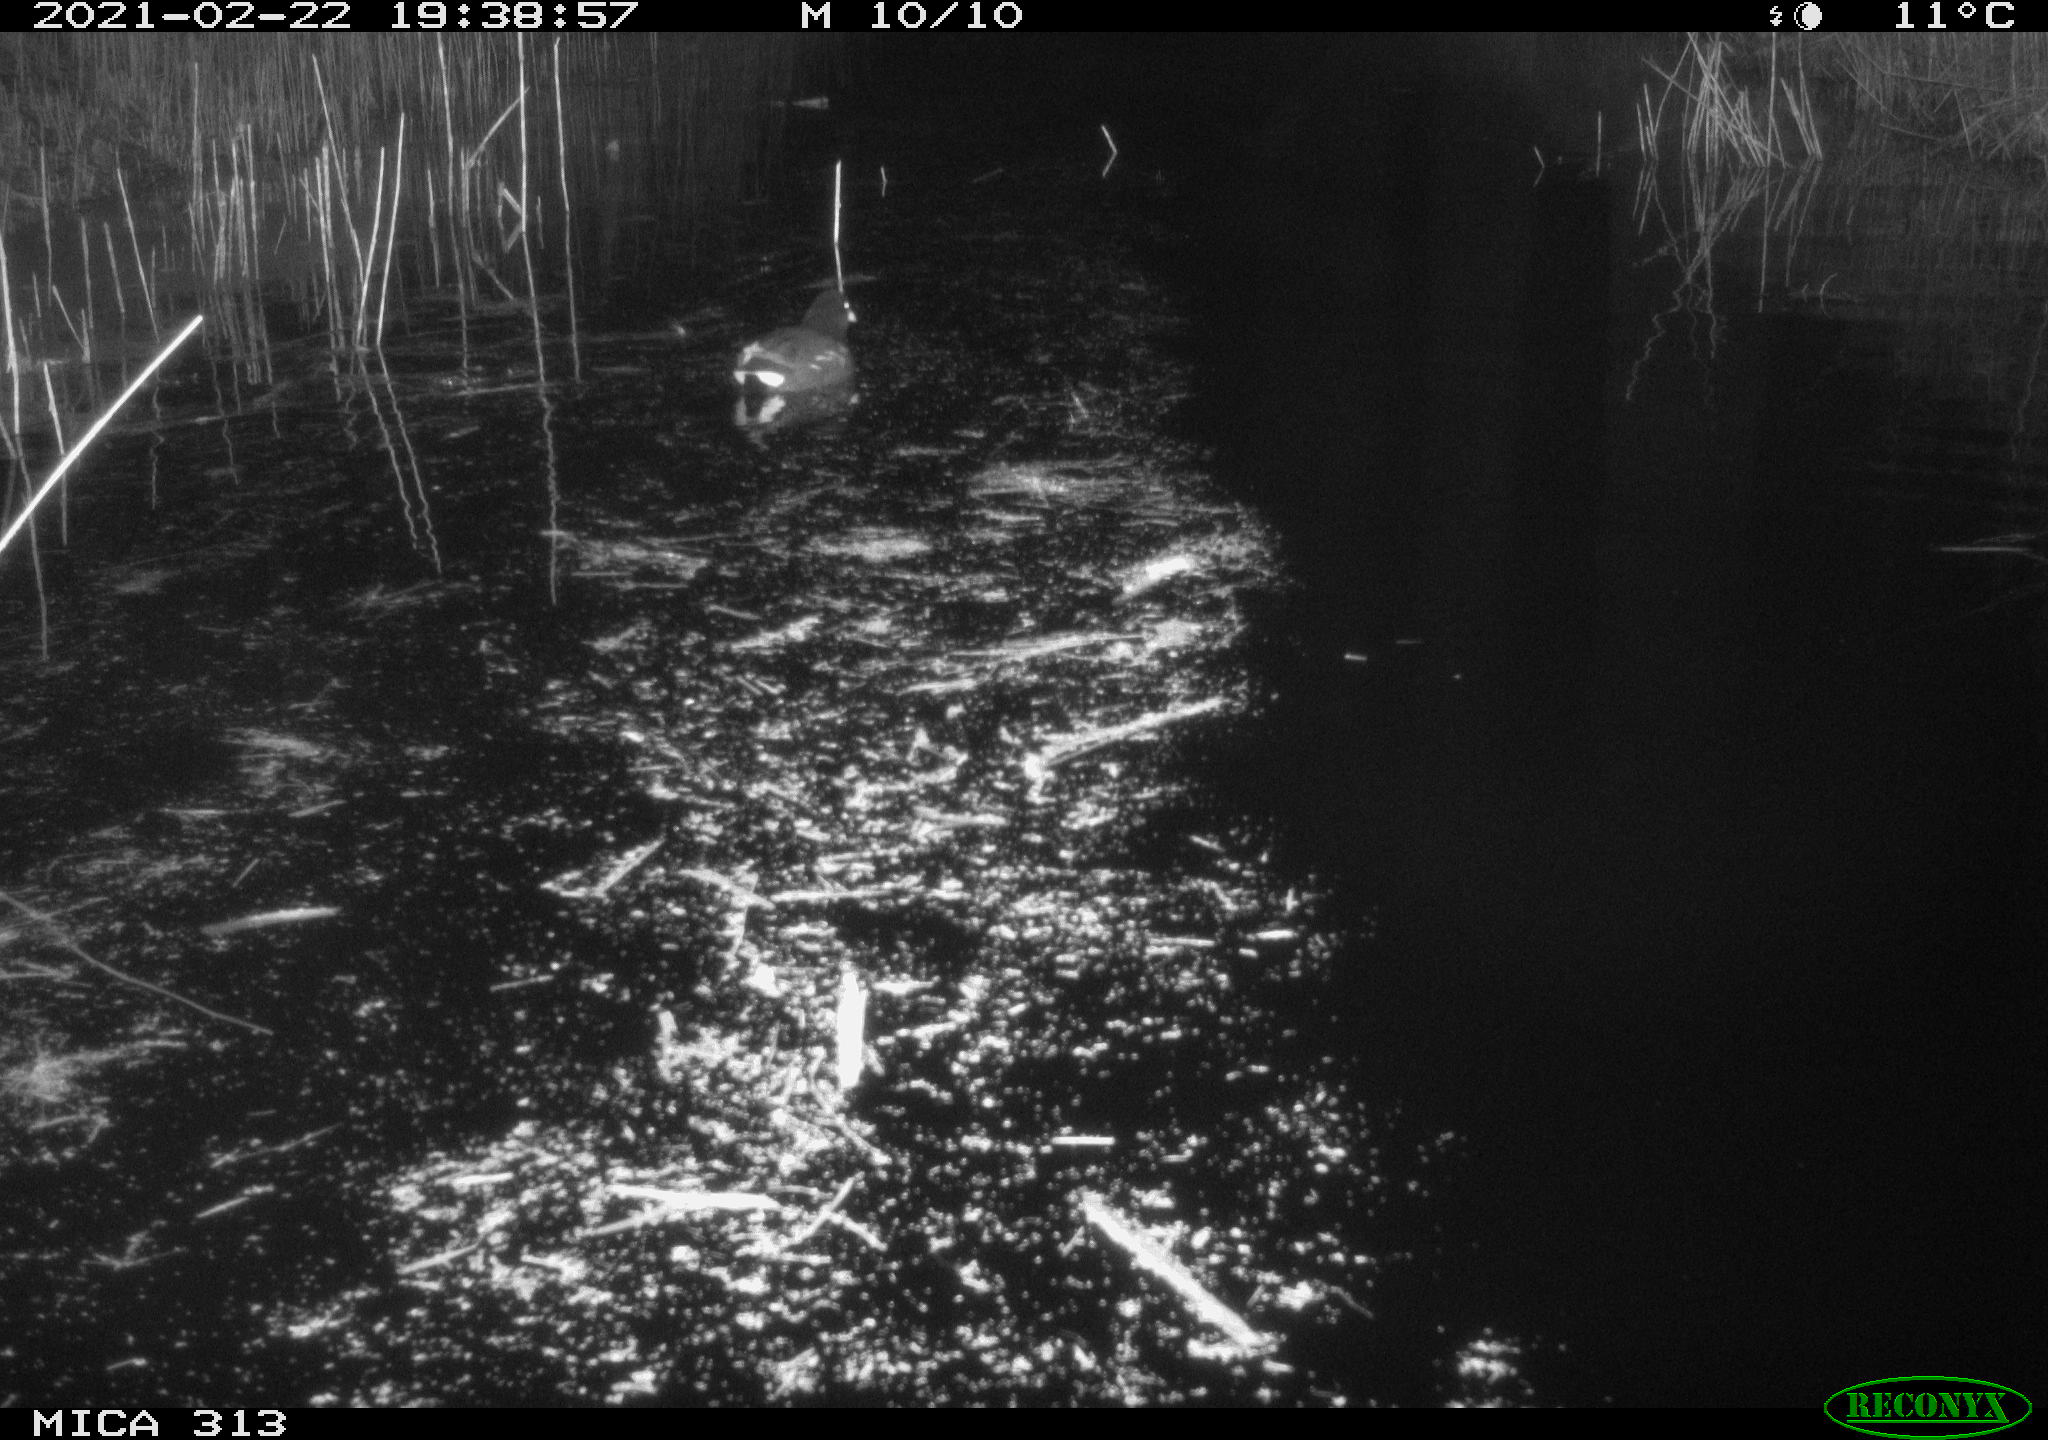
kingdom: Animalia
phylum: Chordata
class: Aves
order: Gruiformes
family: Rallidae
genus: Gallinula
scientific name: Gallinula chloropus
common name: Common moorhen
